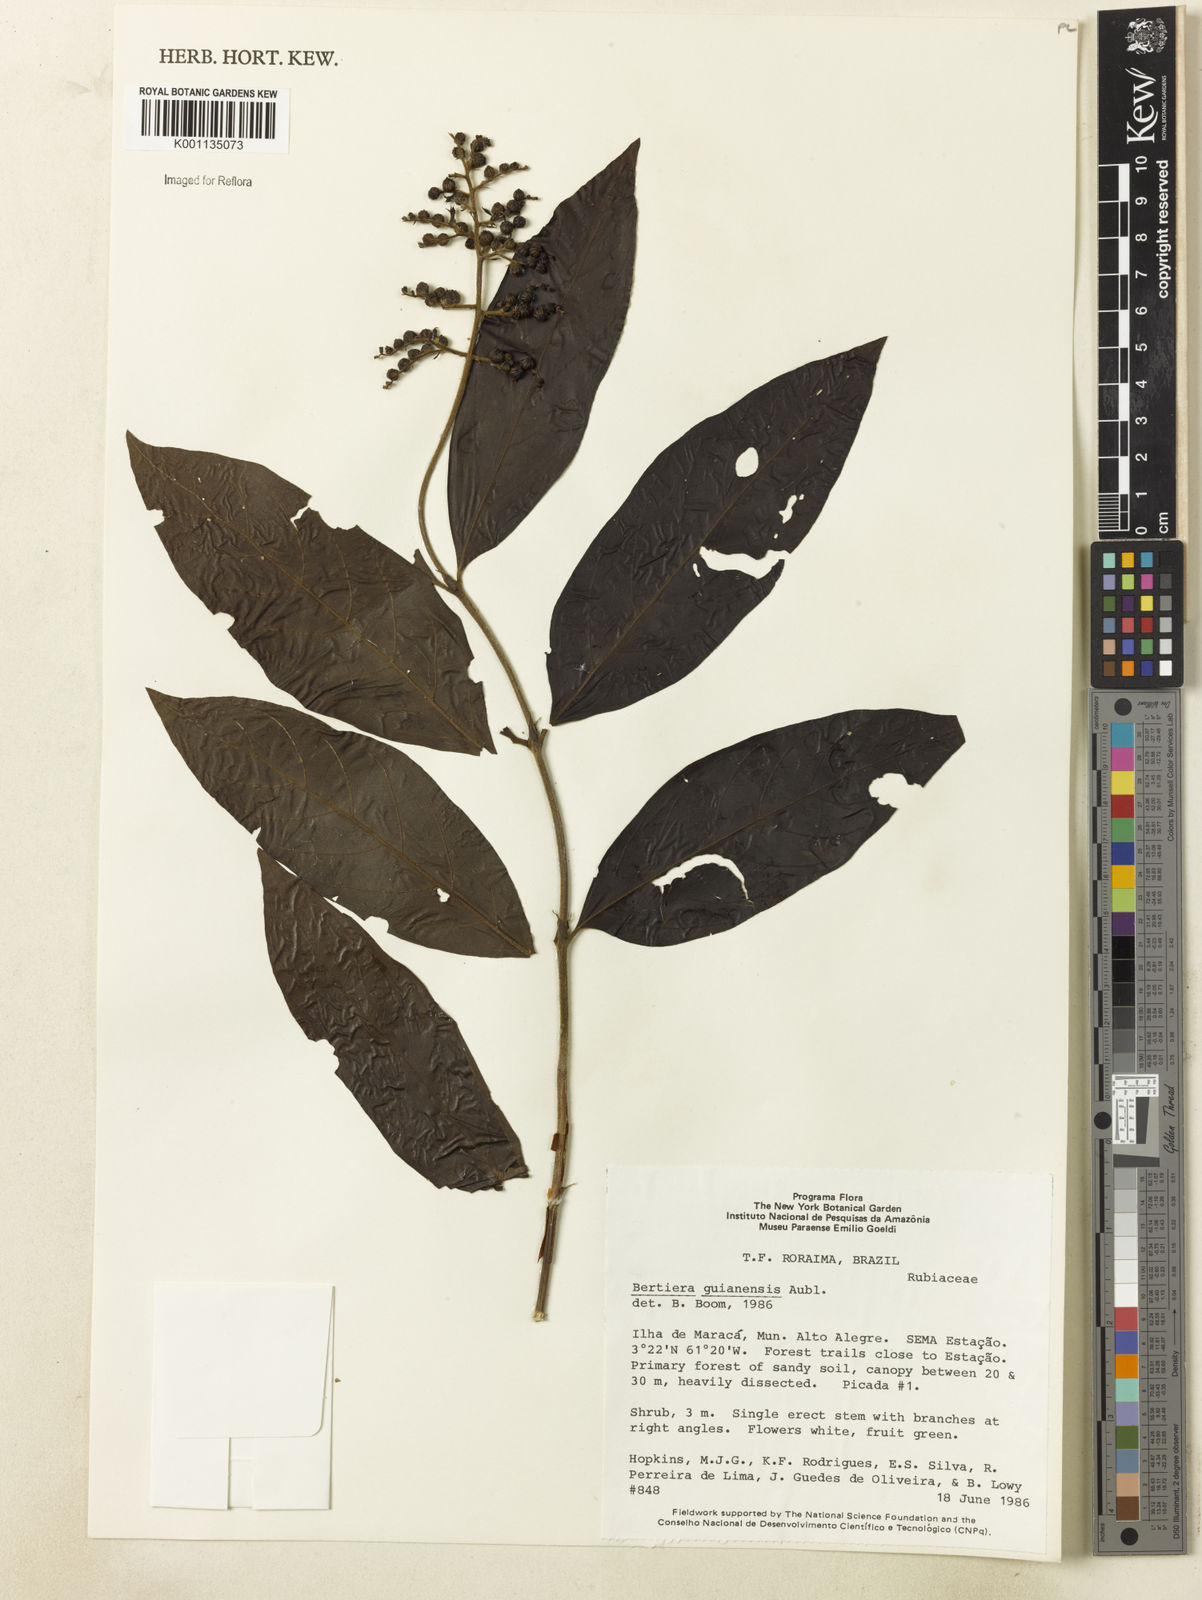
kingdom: Plantae
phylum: Tracheophyta
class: Magnoliopsida
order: Gentianales
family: Rubiaceae
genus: Bertiera
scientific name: Bertiera guianensis
